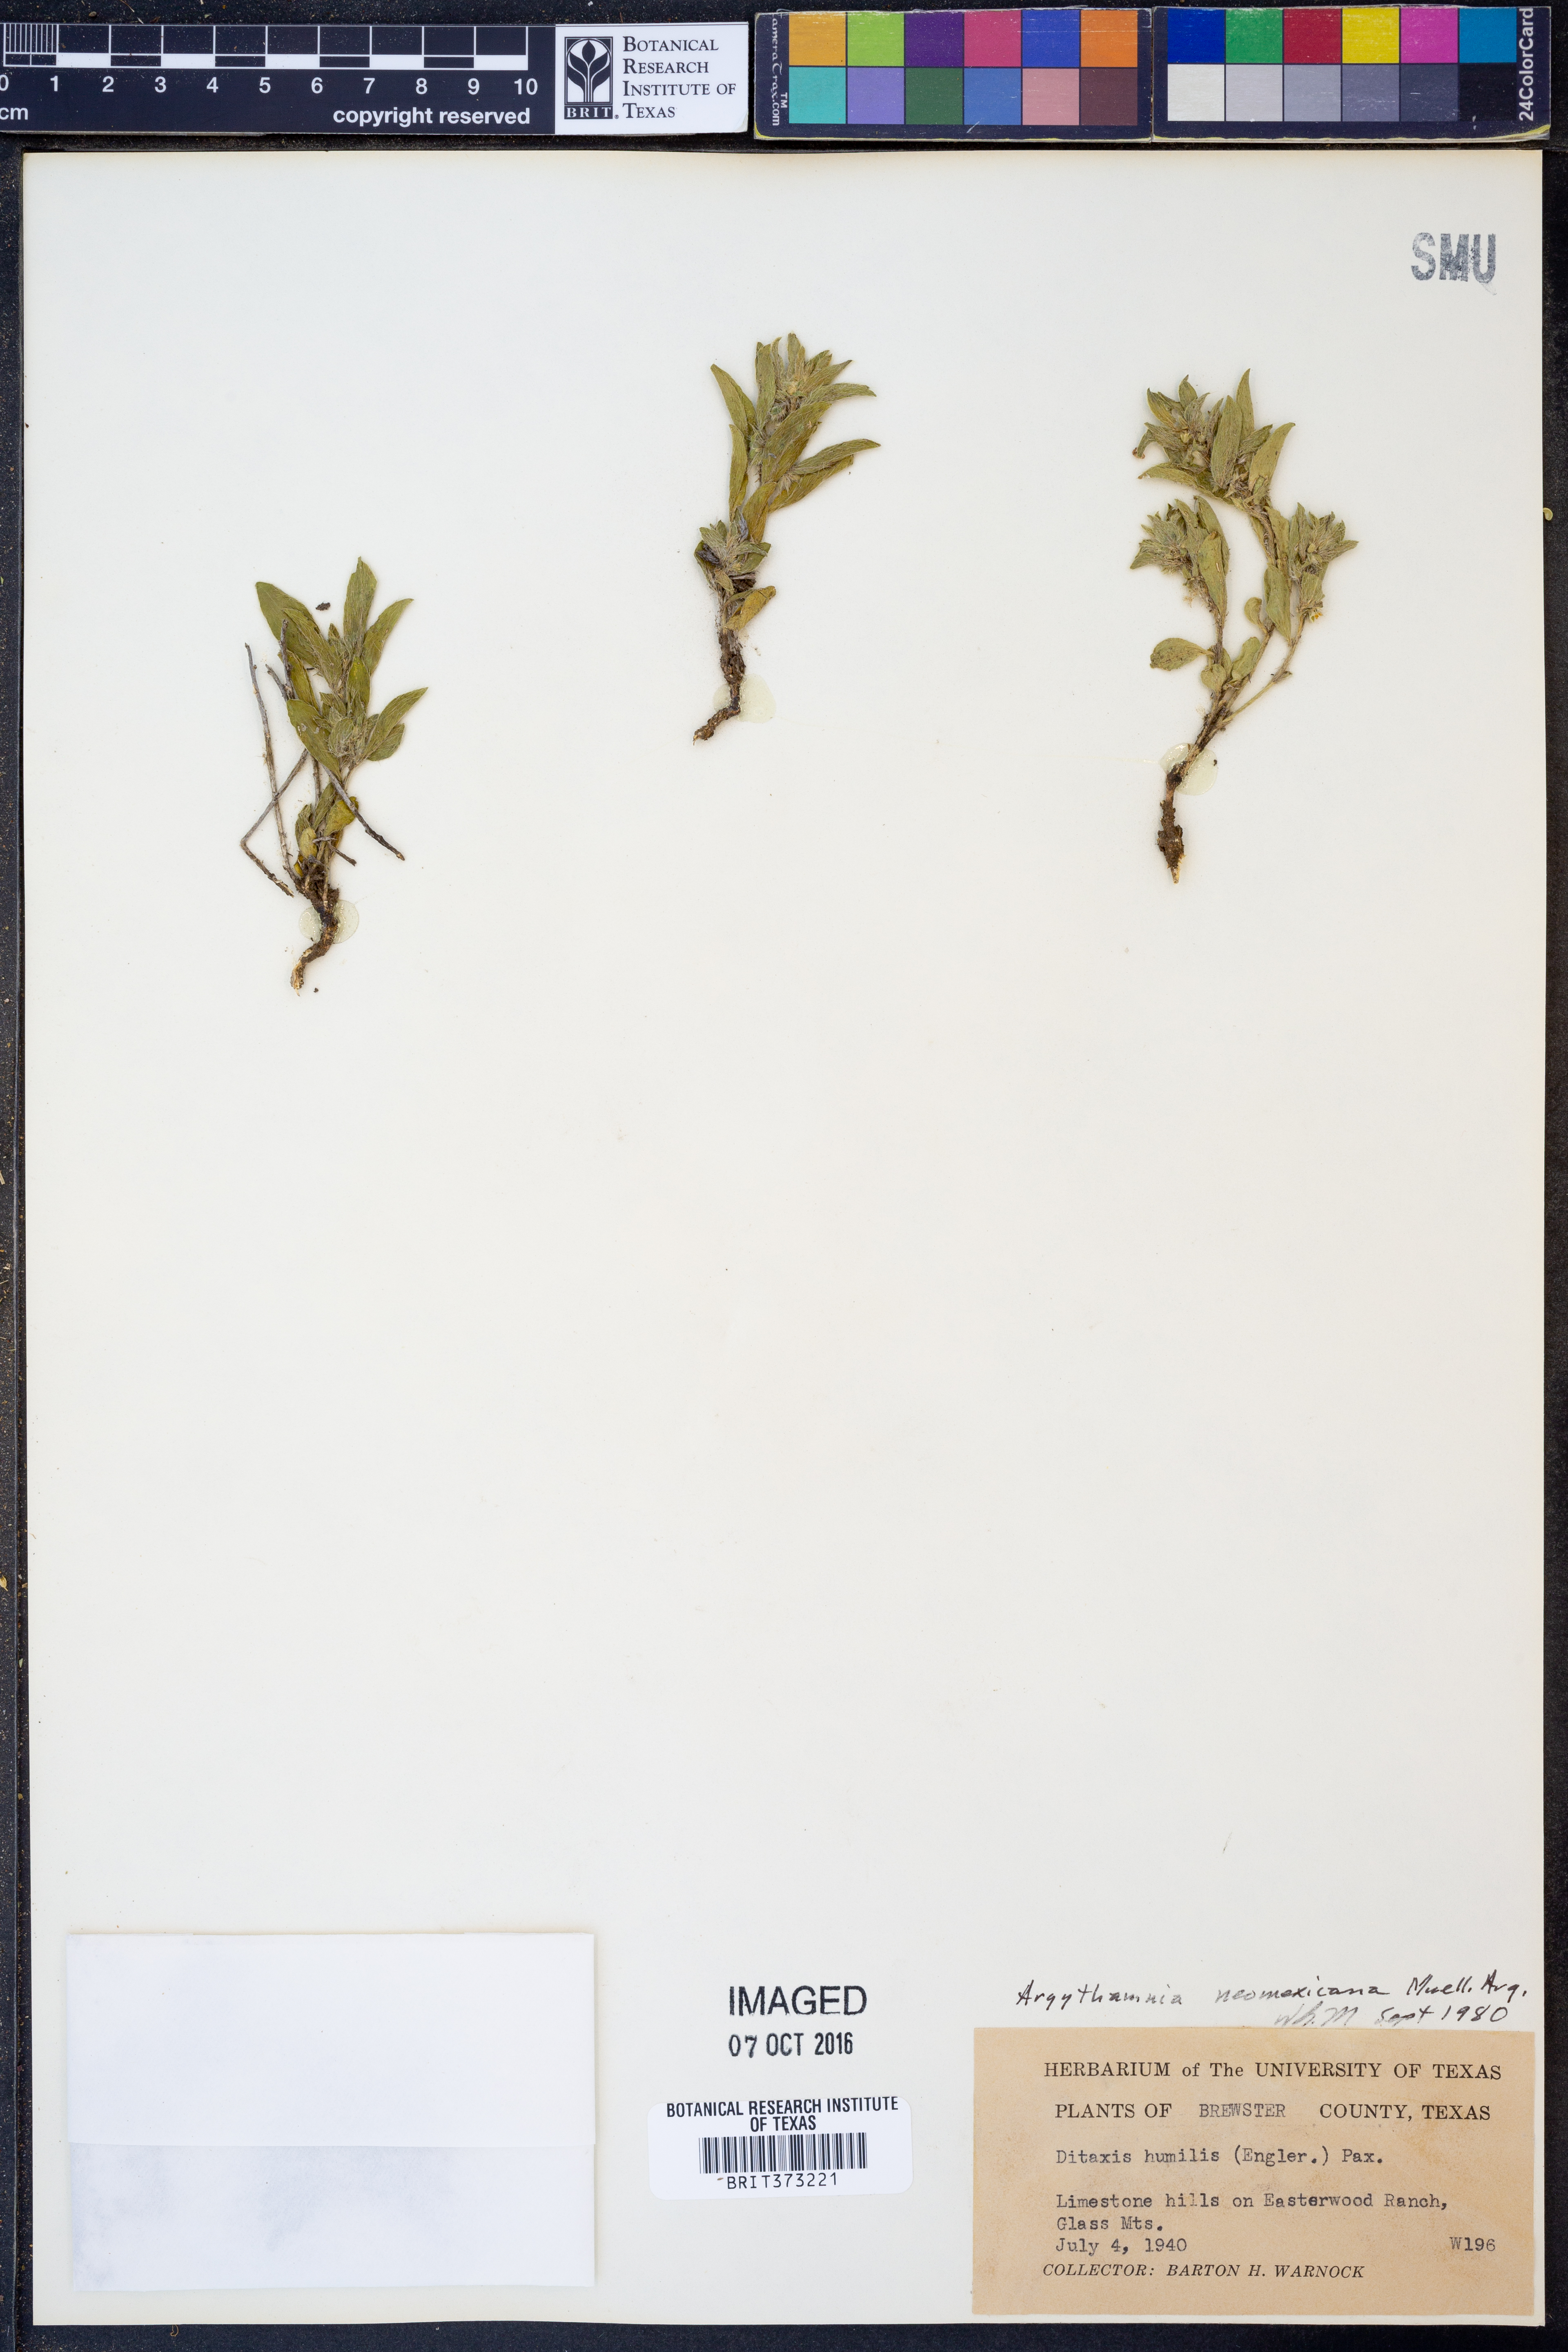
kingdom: Plantae
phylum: Tracheophyta
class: Magnoliopsida
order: Malpighiales
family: Euphorbiaceae
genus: Ditaxis
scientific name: Ditaxis serrata
